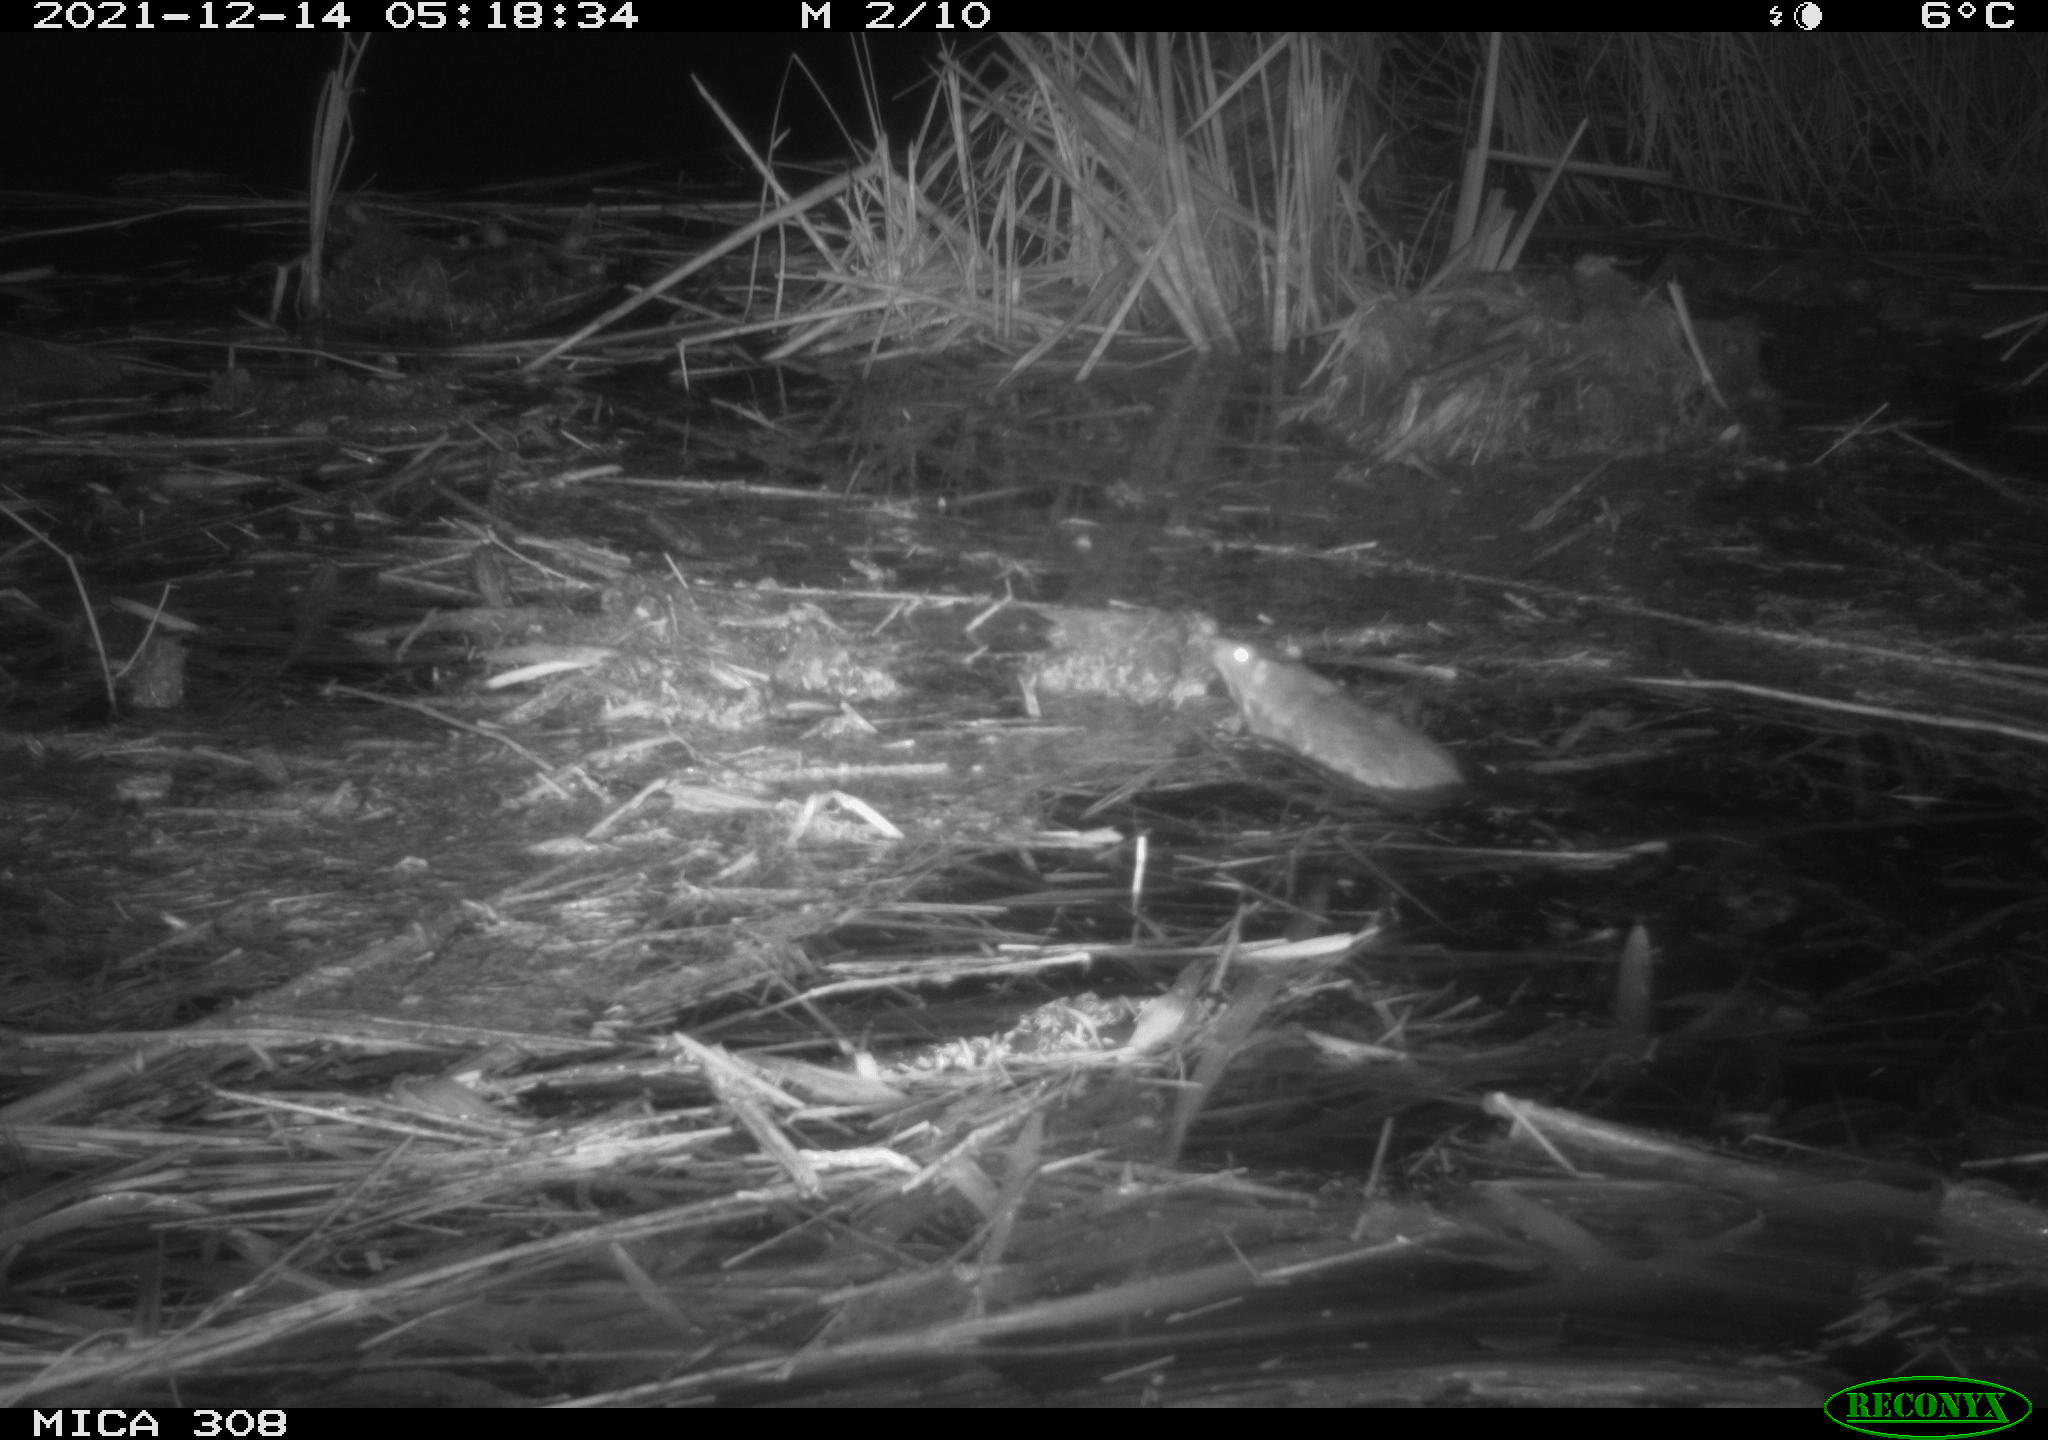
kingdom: Animalia
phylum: Chordata
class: Mammalia
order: Rodentia
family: Muridae
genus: Rattus
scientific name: Rattus norvegicus
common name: Brown rat
